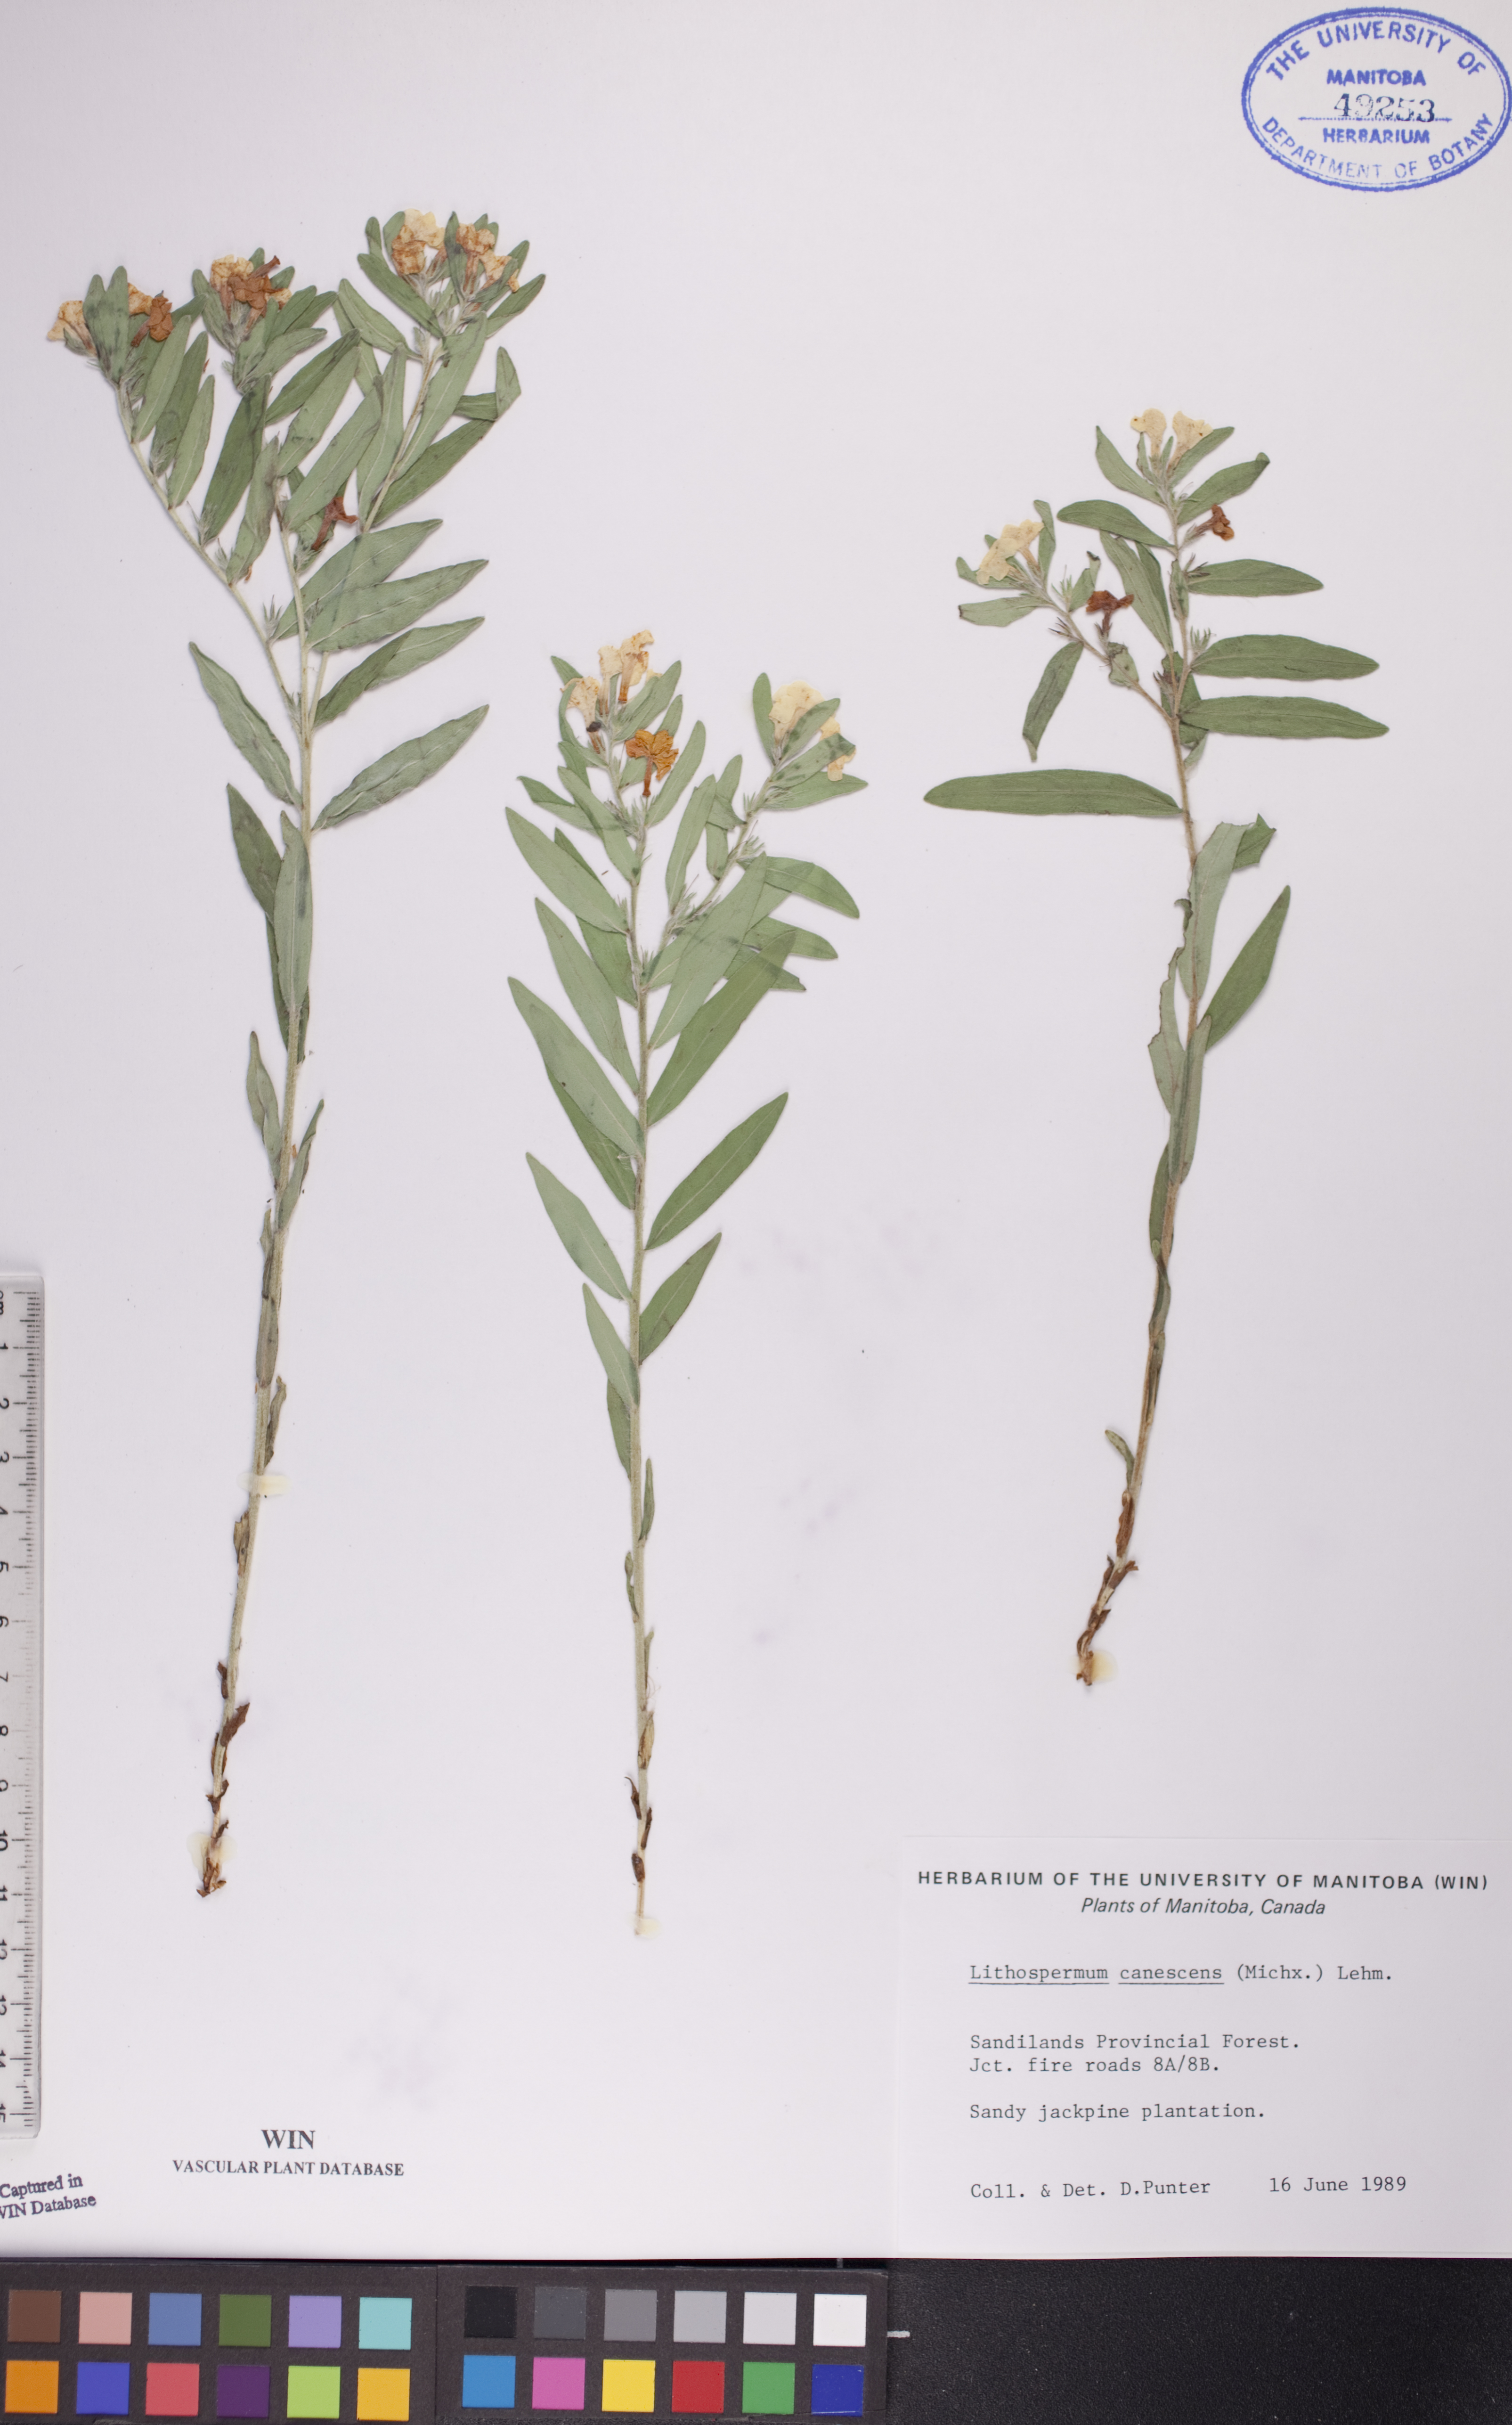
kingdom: Plantae
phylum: Tracheophyta
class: Magnoliopsida
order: Boraginales
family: Boraginaceae
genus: Lithospermum
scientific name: Lithospermum canescens
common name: Hoary puccoon
